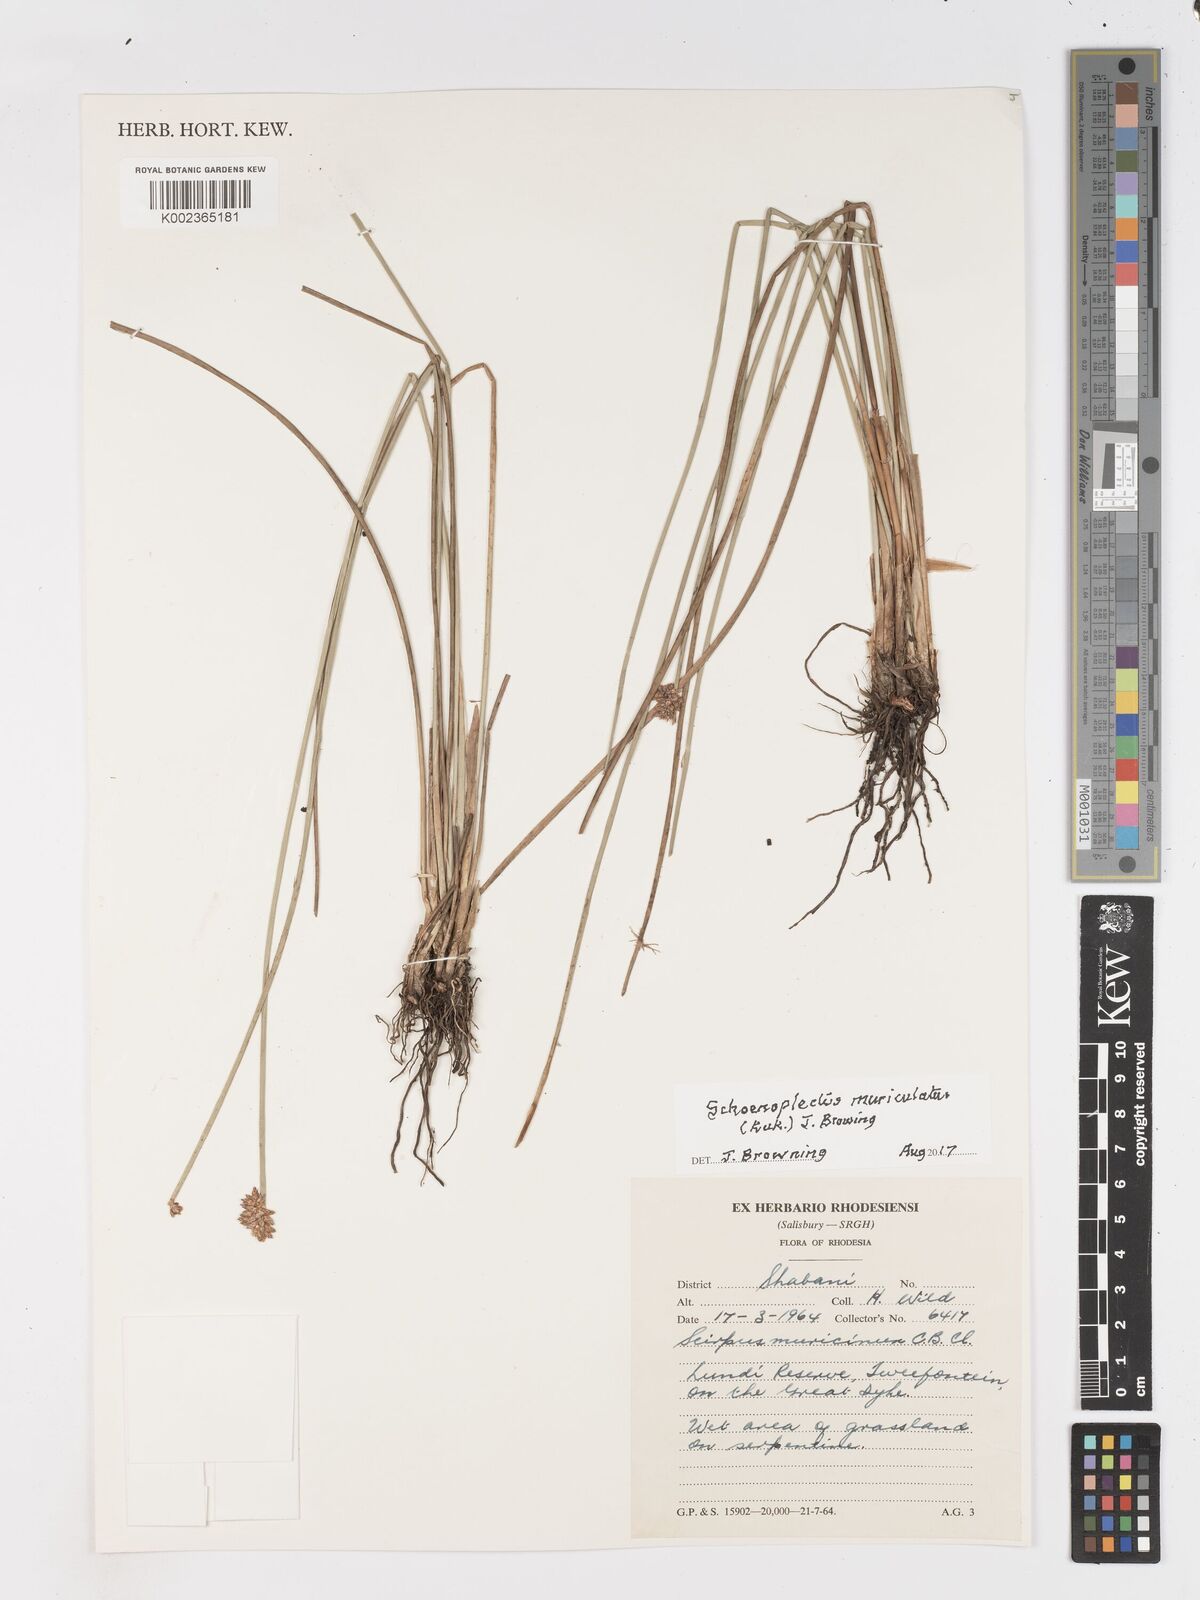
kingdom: Plantae
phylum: Tracheophyta
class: Liliopsida
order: Poales
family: Cyperaceae
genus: Schoenoplectiella
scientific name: Schoenoplectiella muricinux
